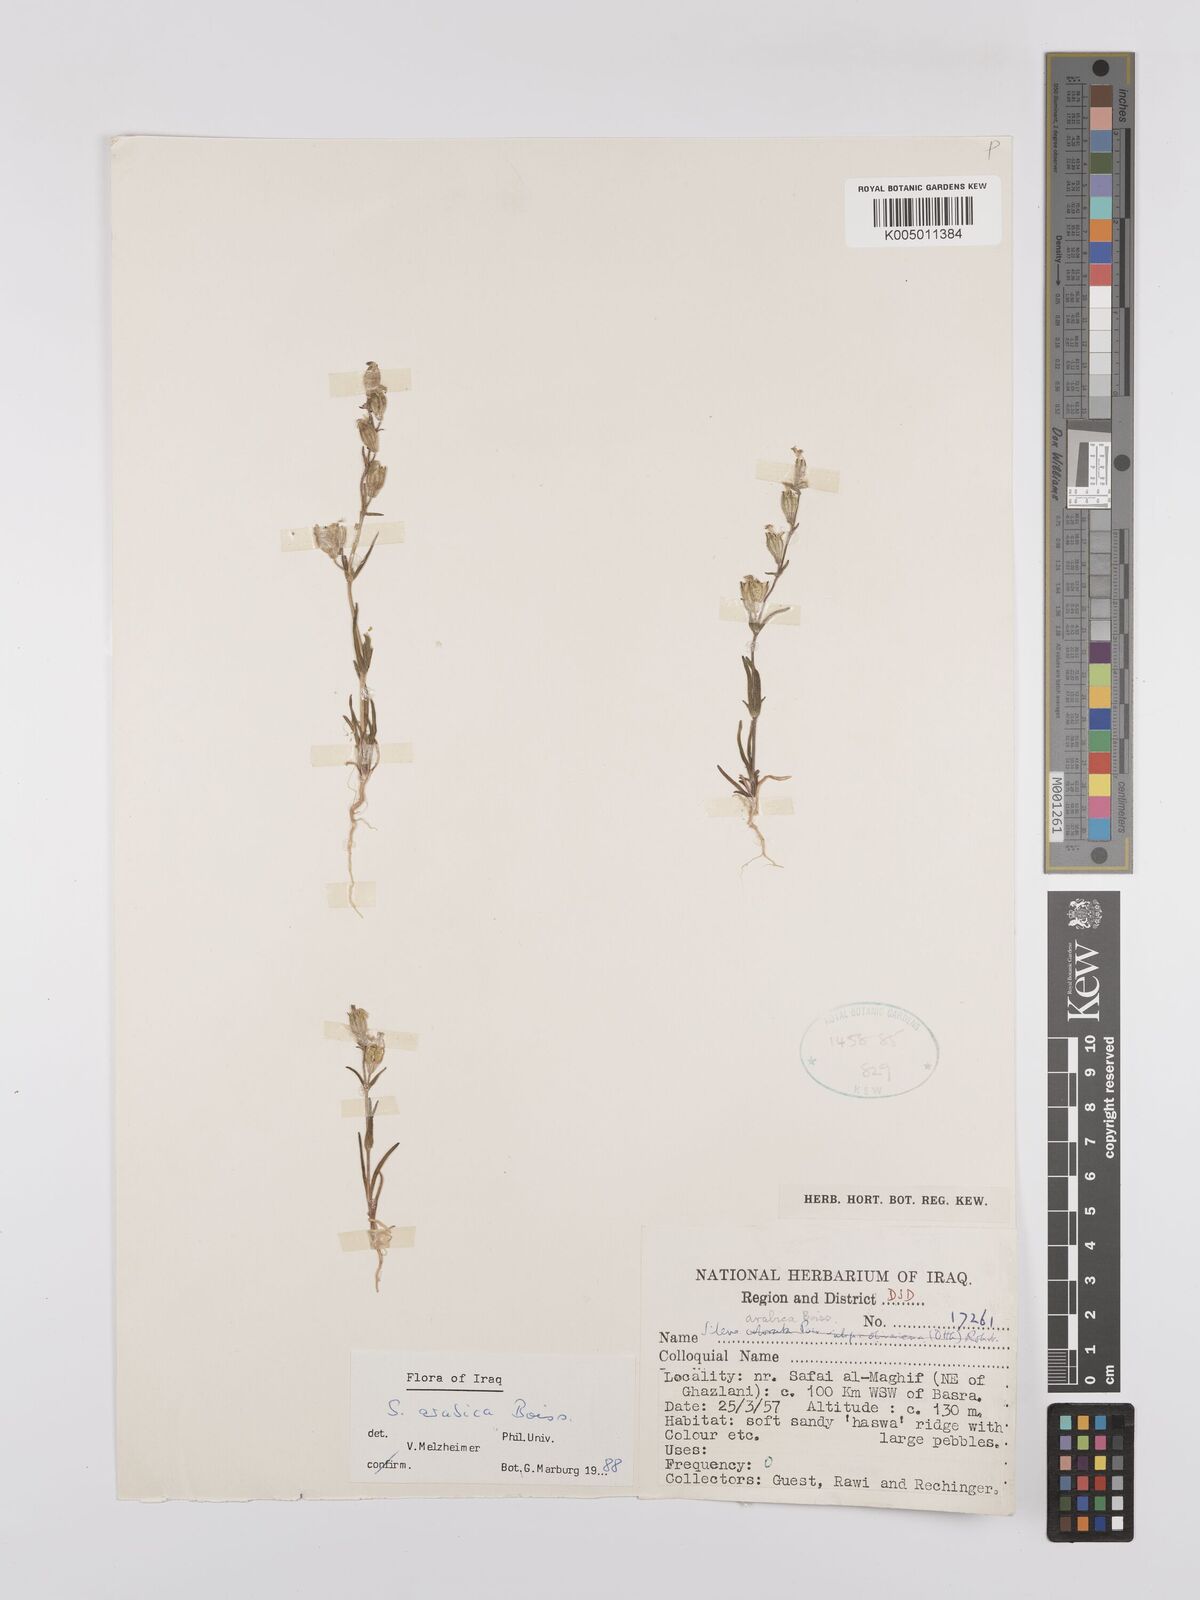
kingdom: Plantae
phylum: Tracheophyta
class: Magnoliopsida
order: Caryophyllales
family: Caryophyllaceae
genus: Silene
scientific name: Silene arabica
